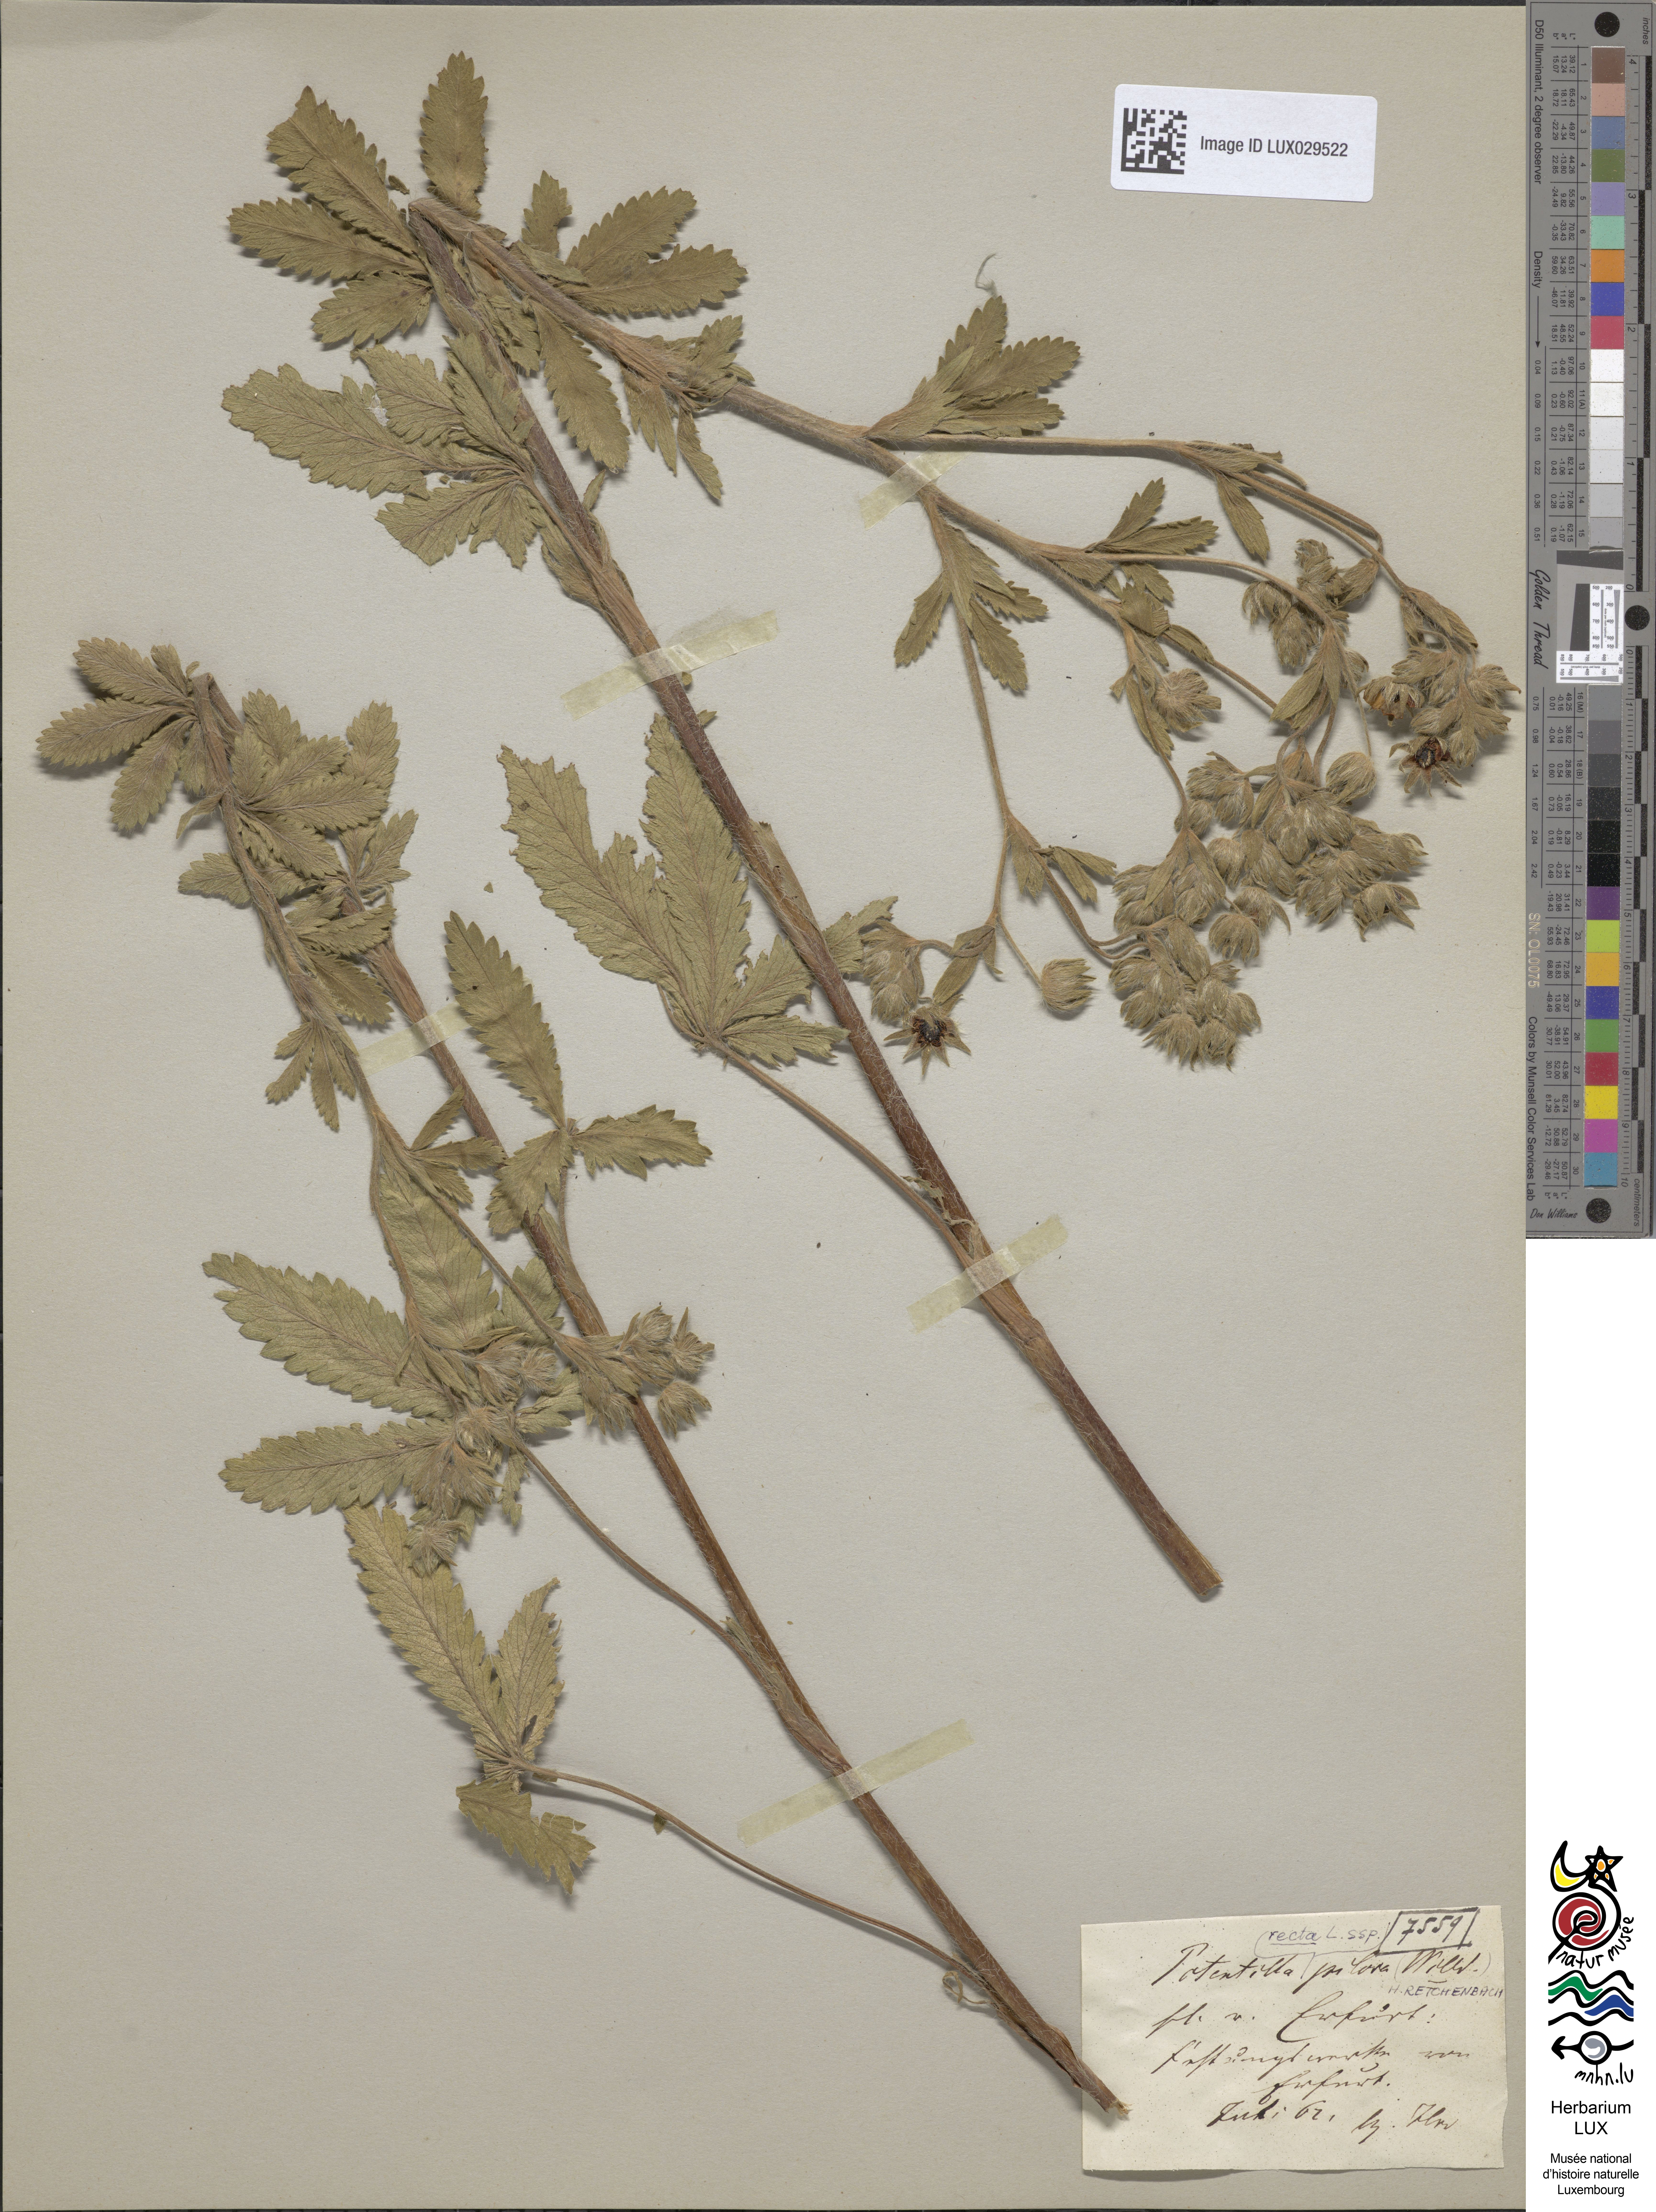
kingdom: Plantae
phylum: Tracheophyta
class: Magnoliopsida
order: Rosales
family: Rosaceae
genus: Potentilla
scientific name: Potentilla recta
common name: Sulphur cinquefoil
